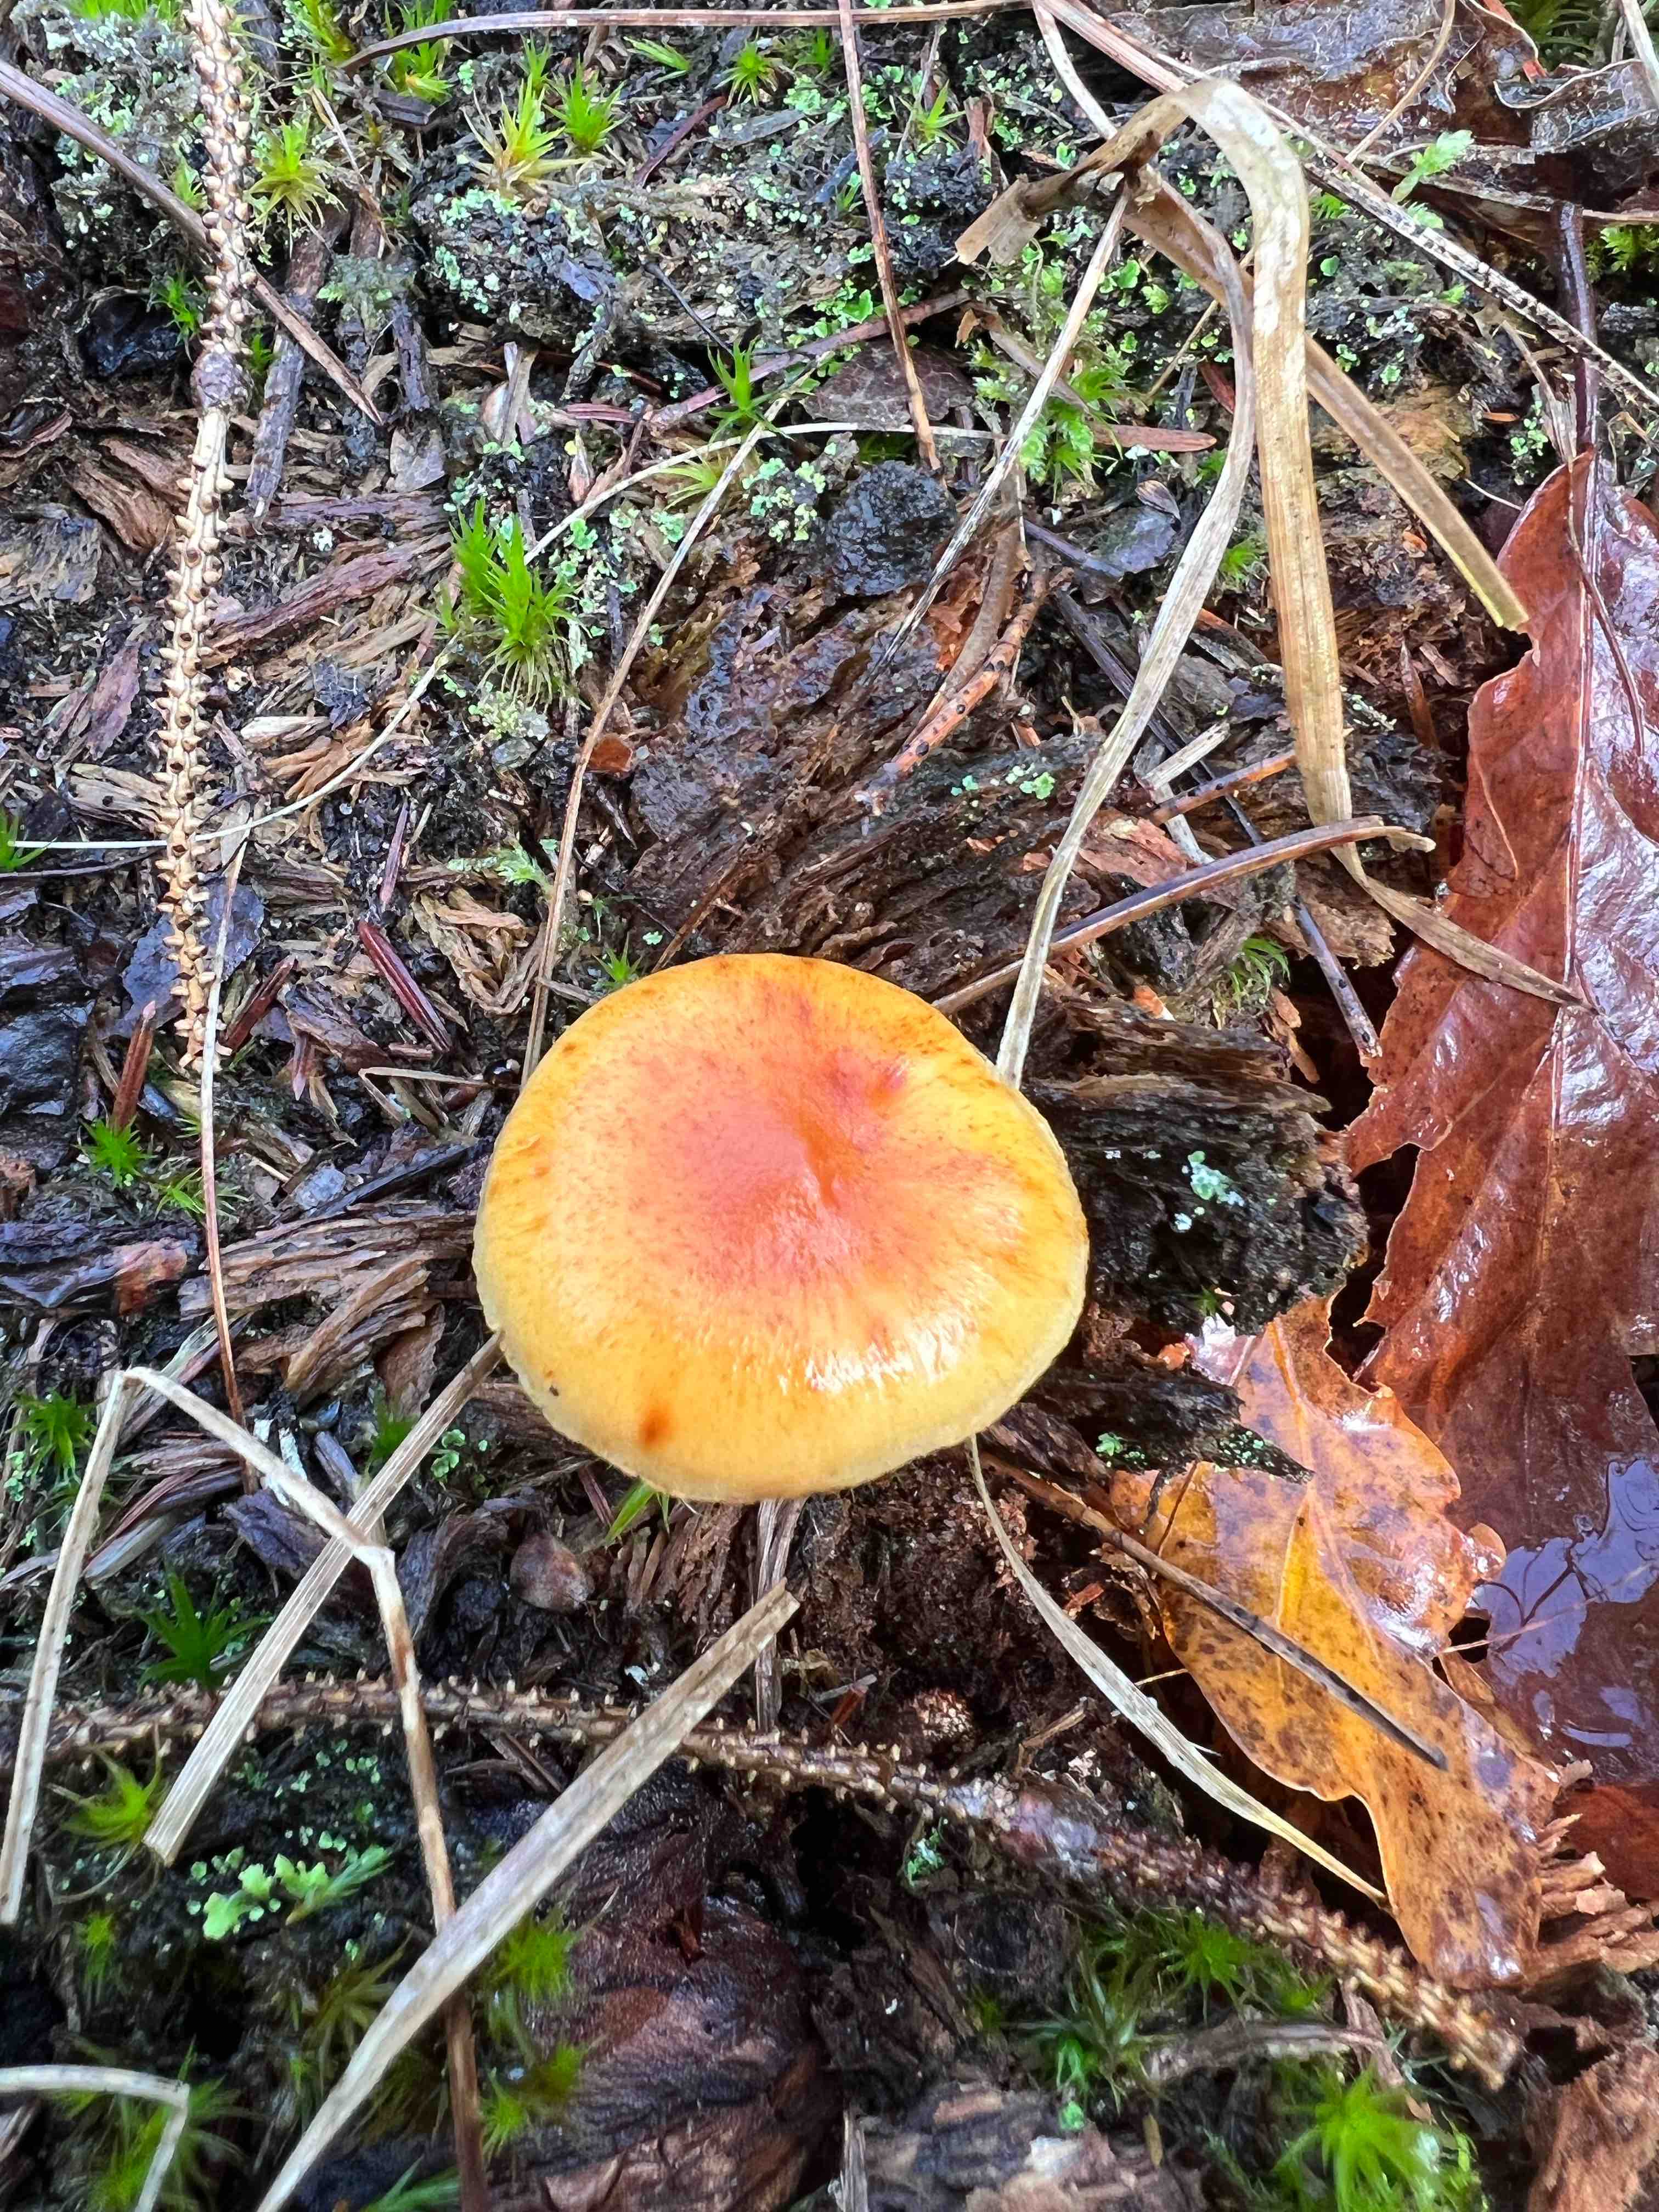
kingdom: Fungi
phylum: Basidiomycota
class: Agaricomycetes
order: Agaricales
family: Hymenogastraceae
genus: Gymnopilus
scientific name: Gymnopilus penetrans
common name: plettet flammehat
